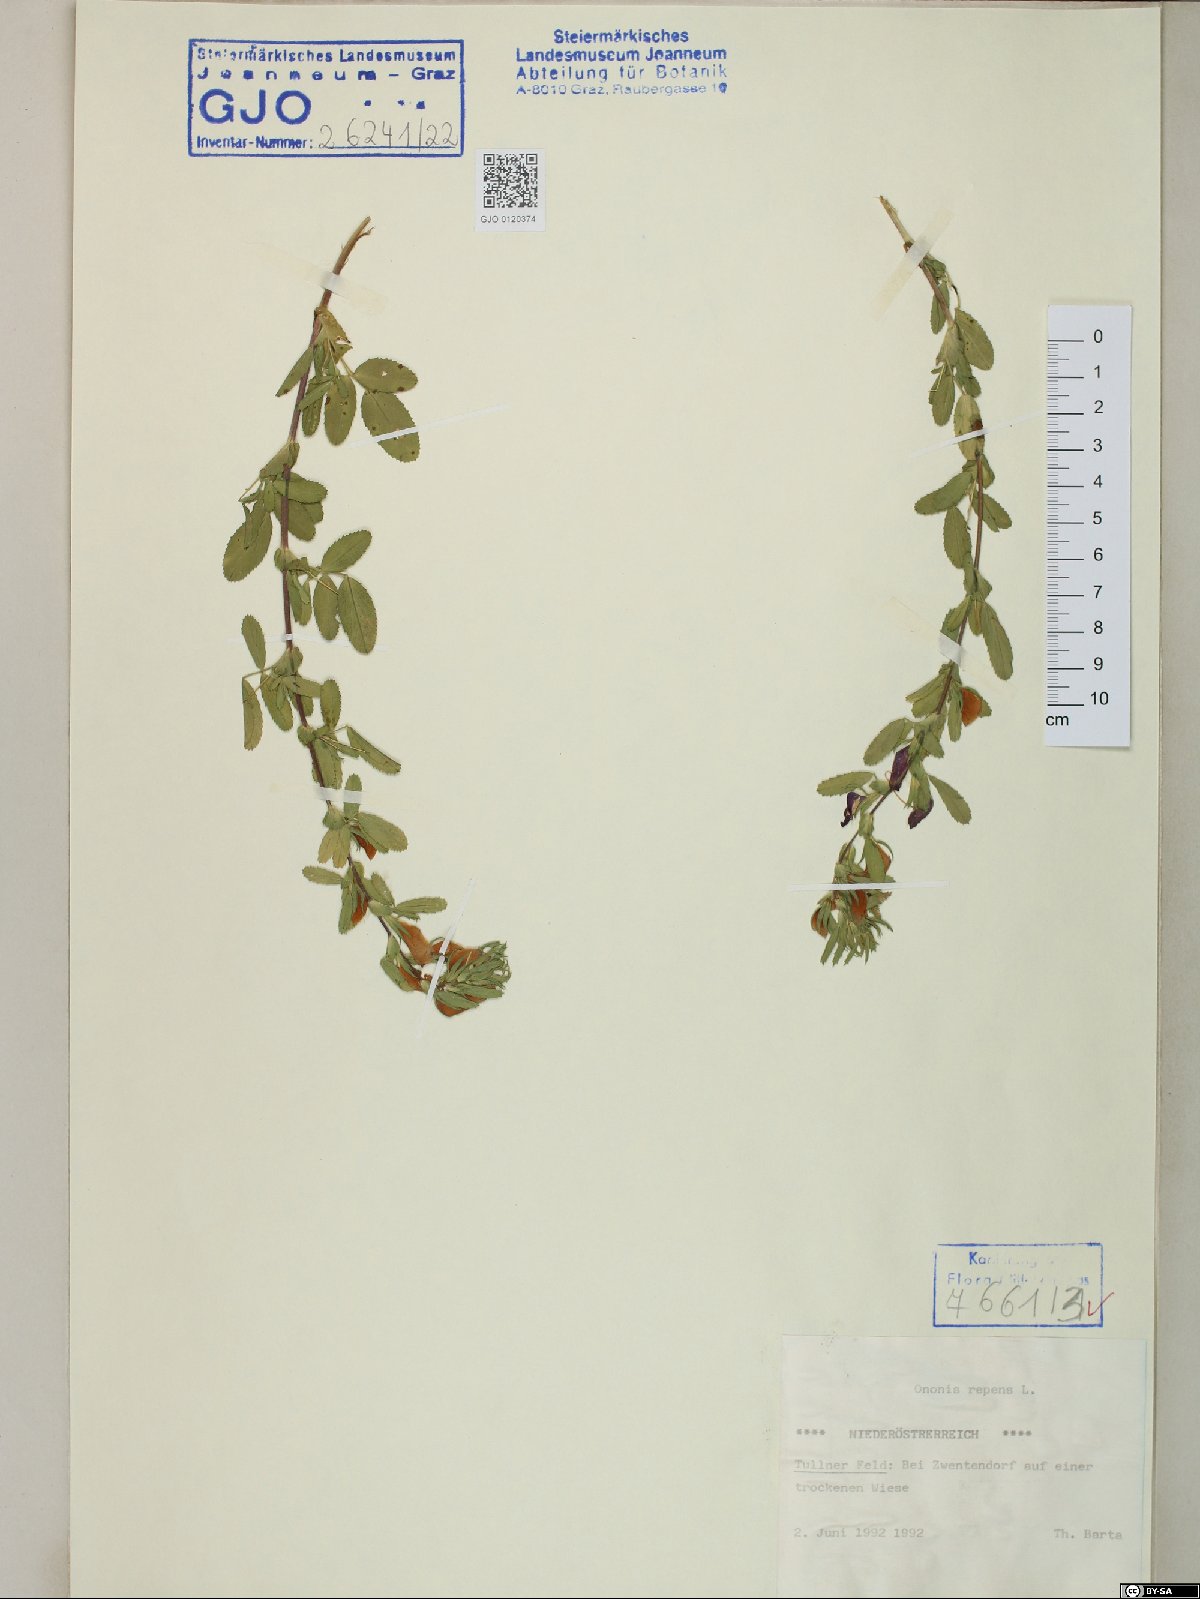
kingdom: Plantae
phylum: Tracheophyta
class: Magnoliopsida
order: Fabales
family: Fabaceae
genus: Ononis
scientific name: Ononis spinosa
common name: Spiny restharrow
